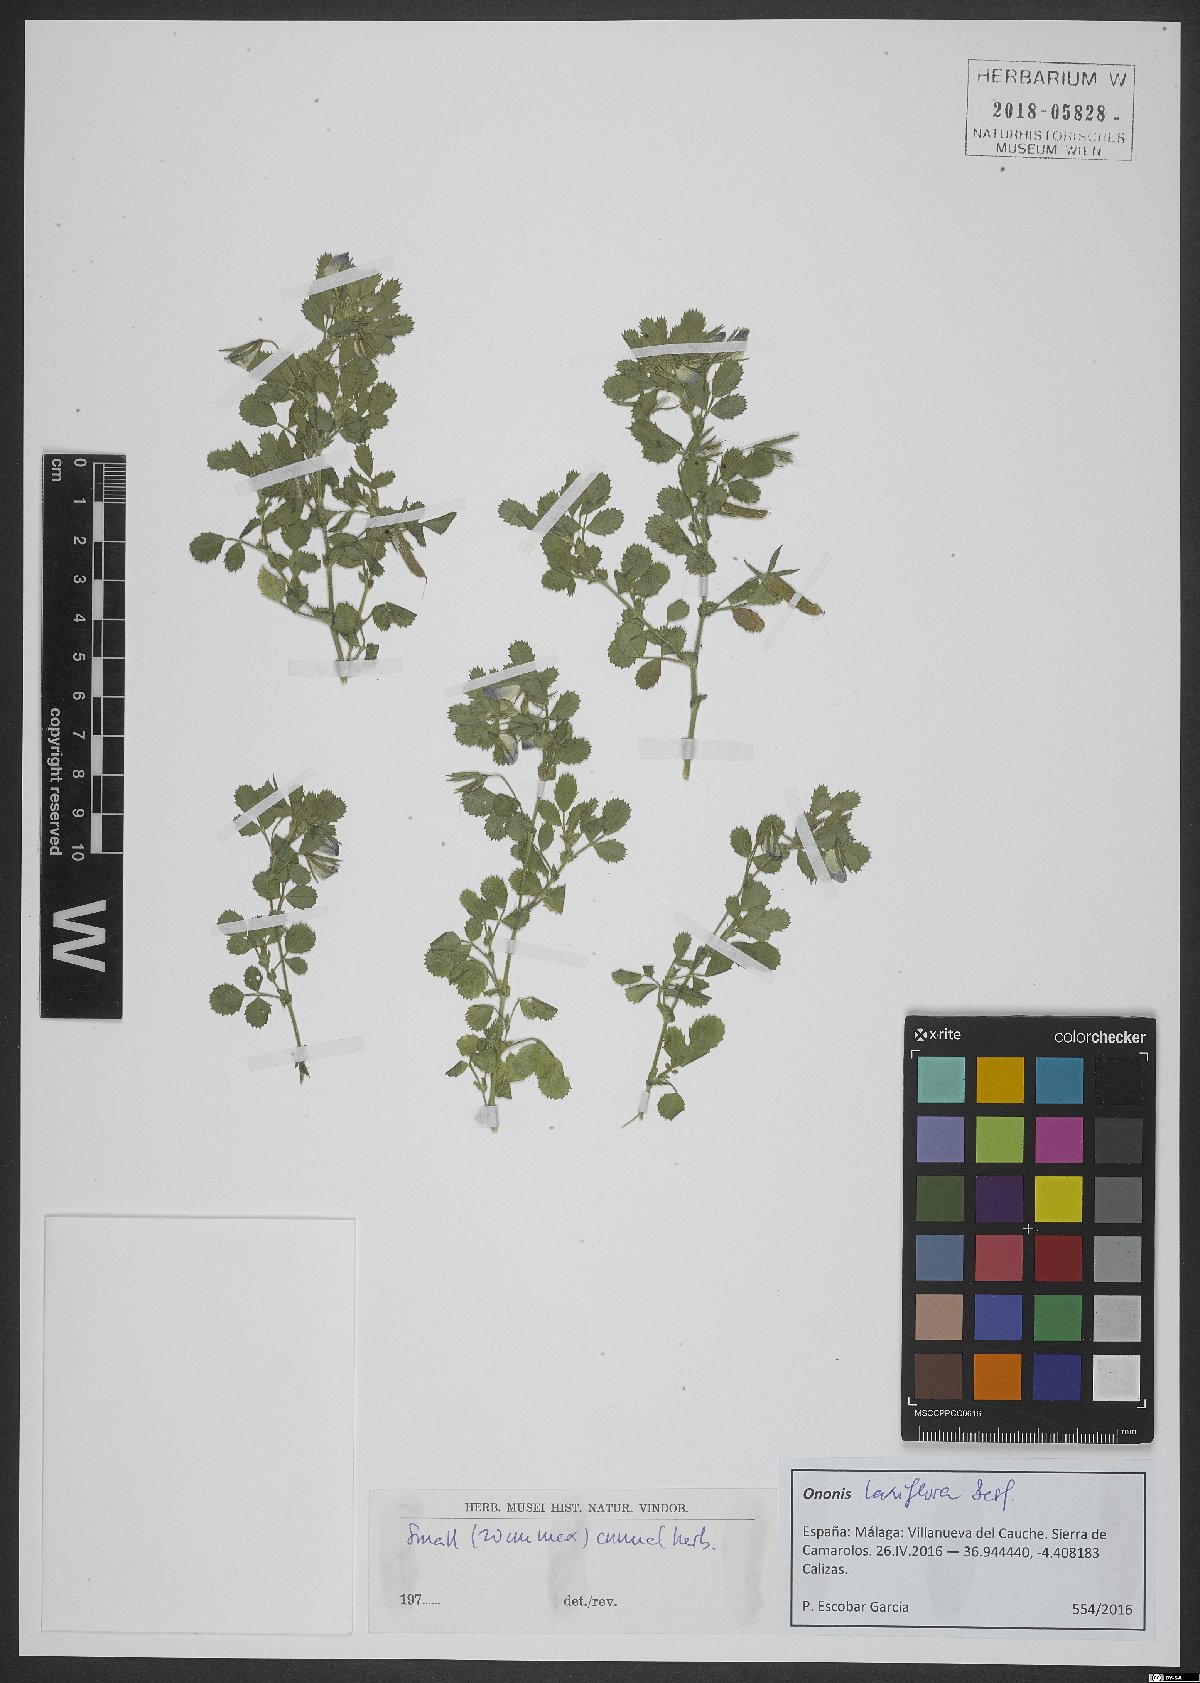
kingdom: Plantae
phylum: Tracheophyta
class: Magnoliopsida
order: Fabales
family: Fabaceae
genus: Ononis
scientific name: Ononis laxiflora
